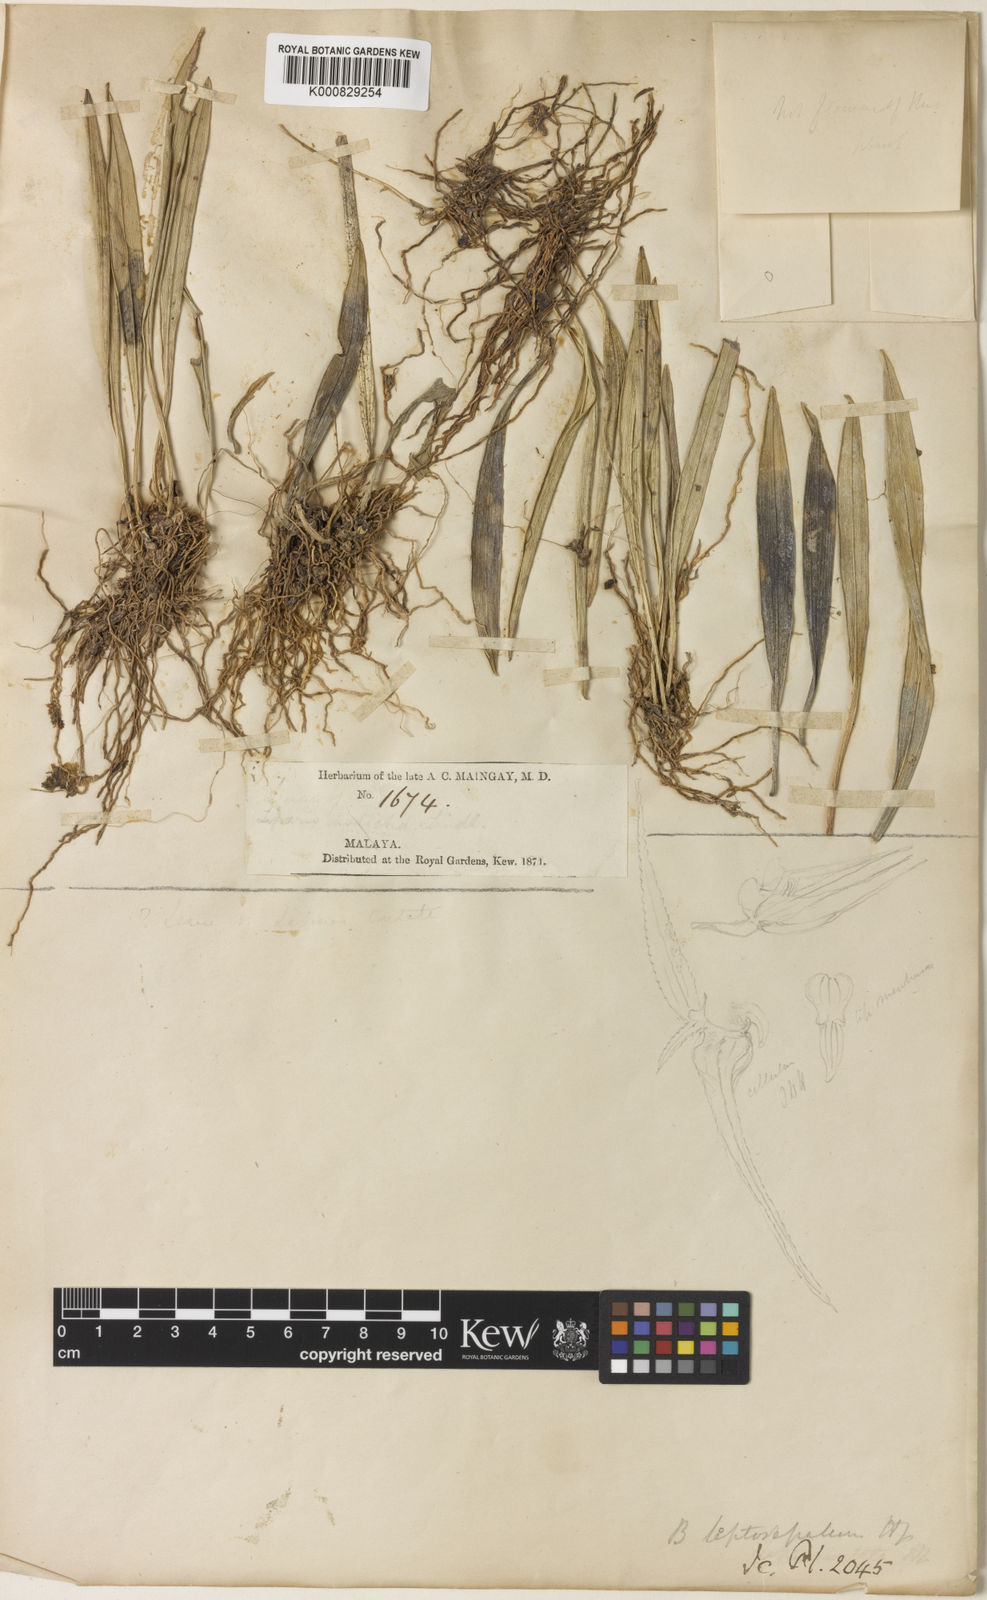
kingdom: Plantae
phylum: Tracheophyta
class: Liliopsida
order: Asparagales
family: Orchidaceae
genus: Bulbophyllum
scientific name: Bulbophyllum leptosepalum
